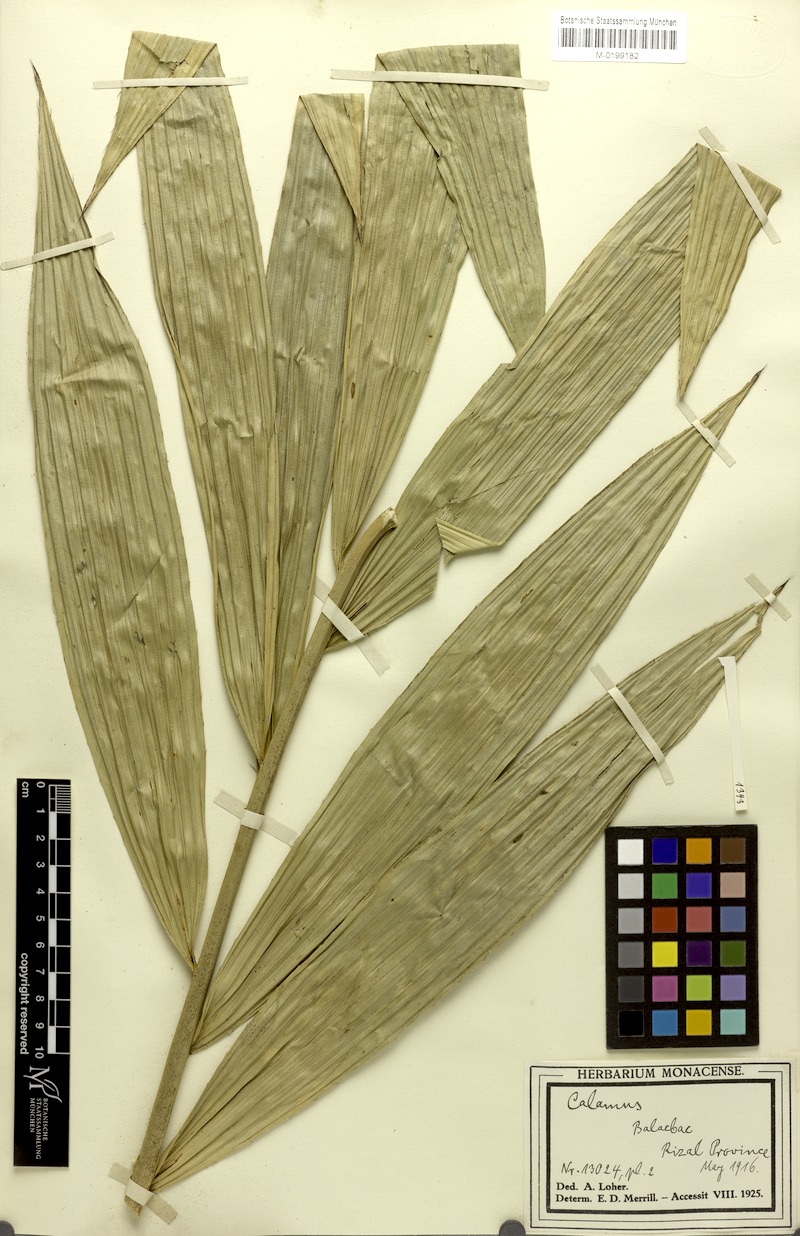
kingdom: Plantae
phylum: Tracheophyta
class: Liliopsida
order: Arecales
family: Arecaceae
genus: Calamus
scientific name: Calamus manillensis
